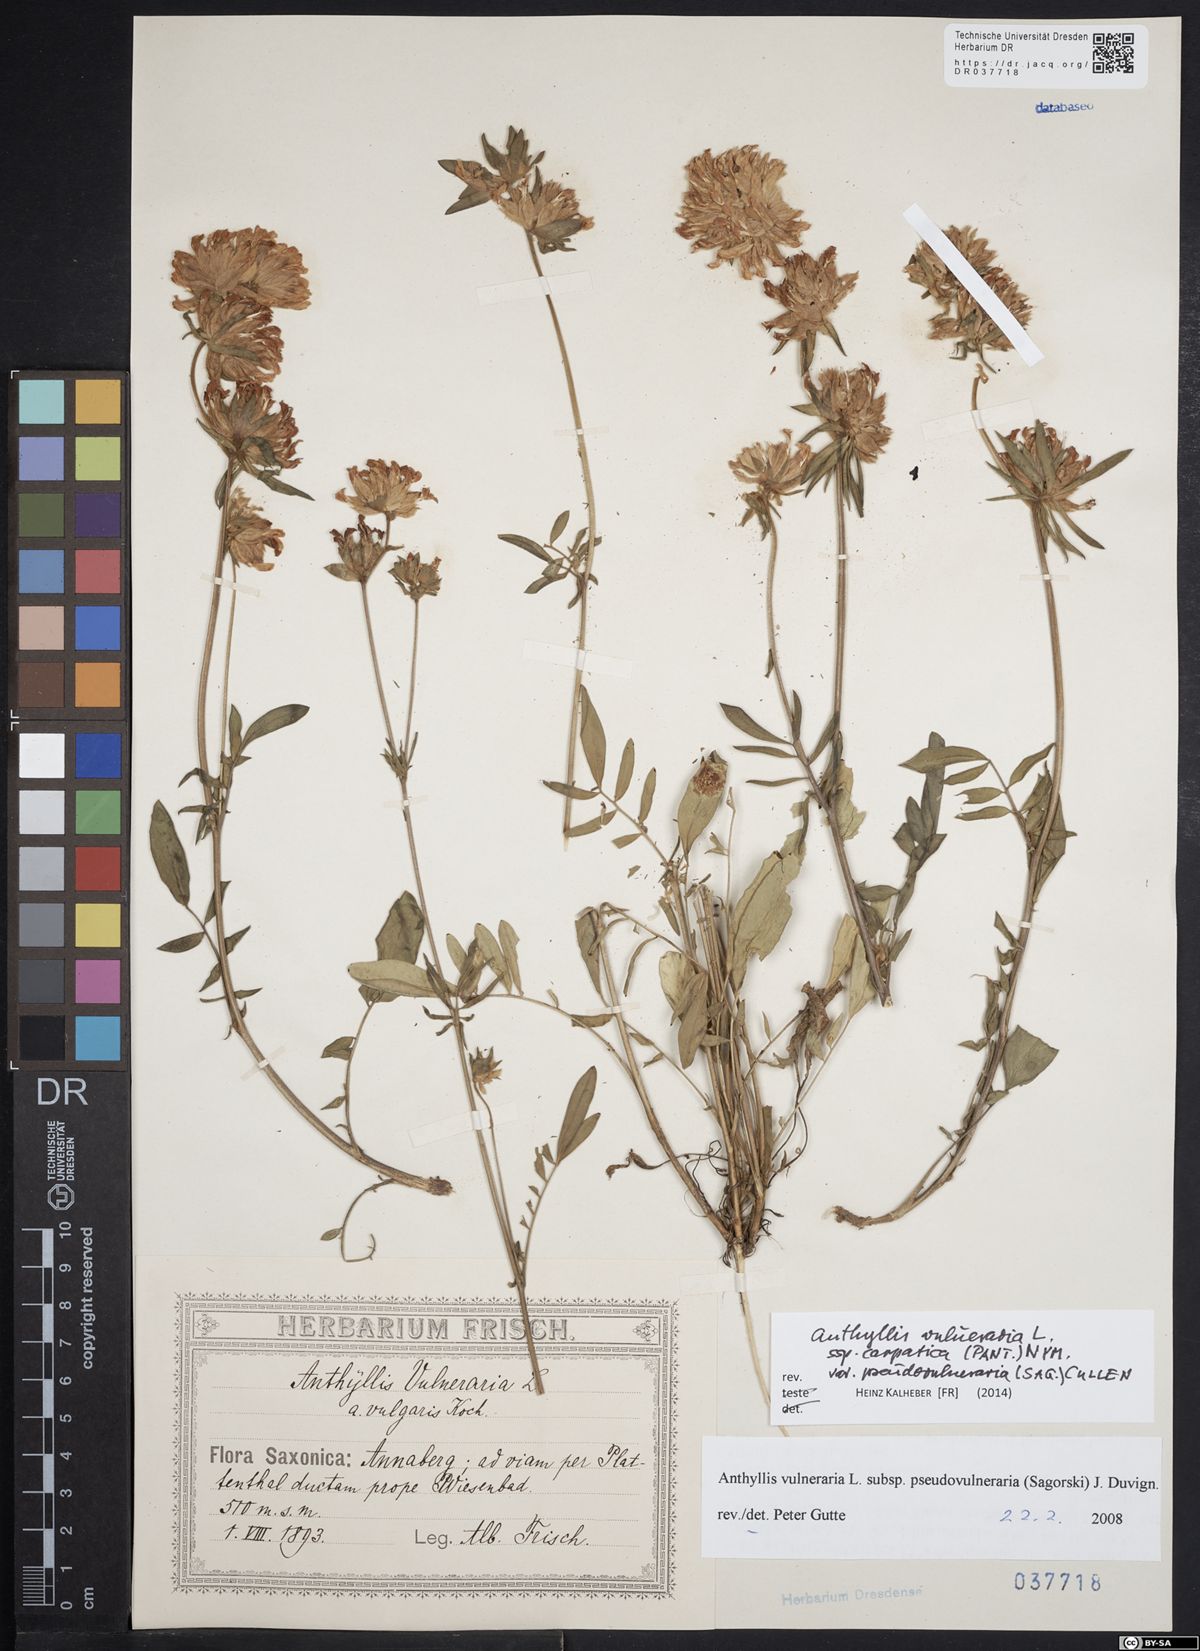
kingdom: Plantae
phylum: Tracheophyta
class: Magnoliopsida
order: Fabales
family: Fabaceae
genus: Anthyllis
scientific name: Anthyllis vulneraria
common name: Kidney vetch
